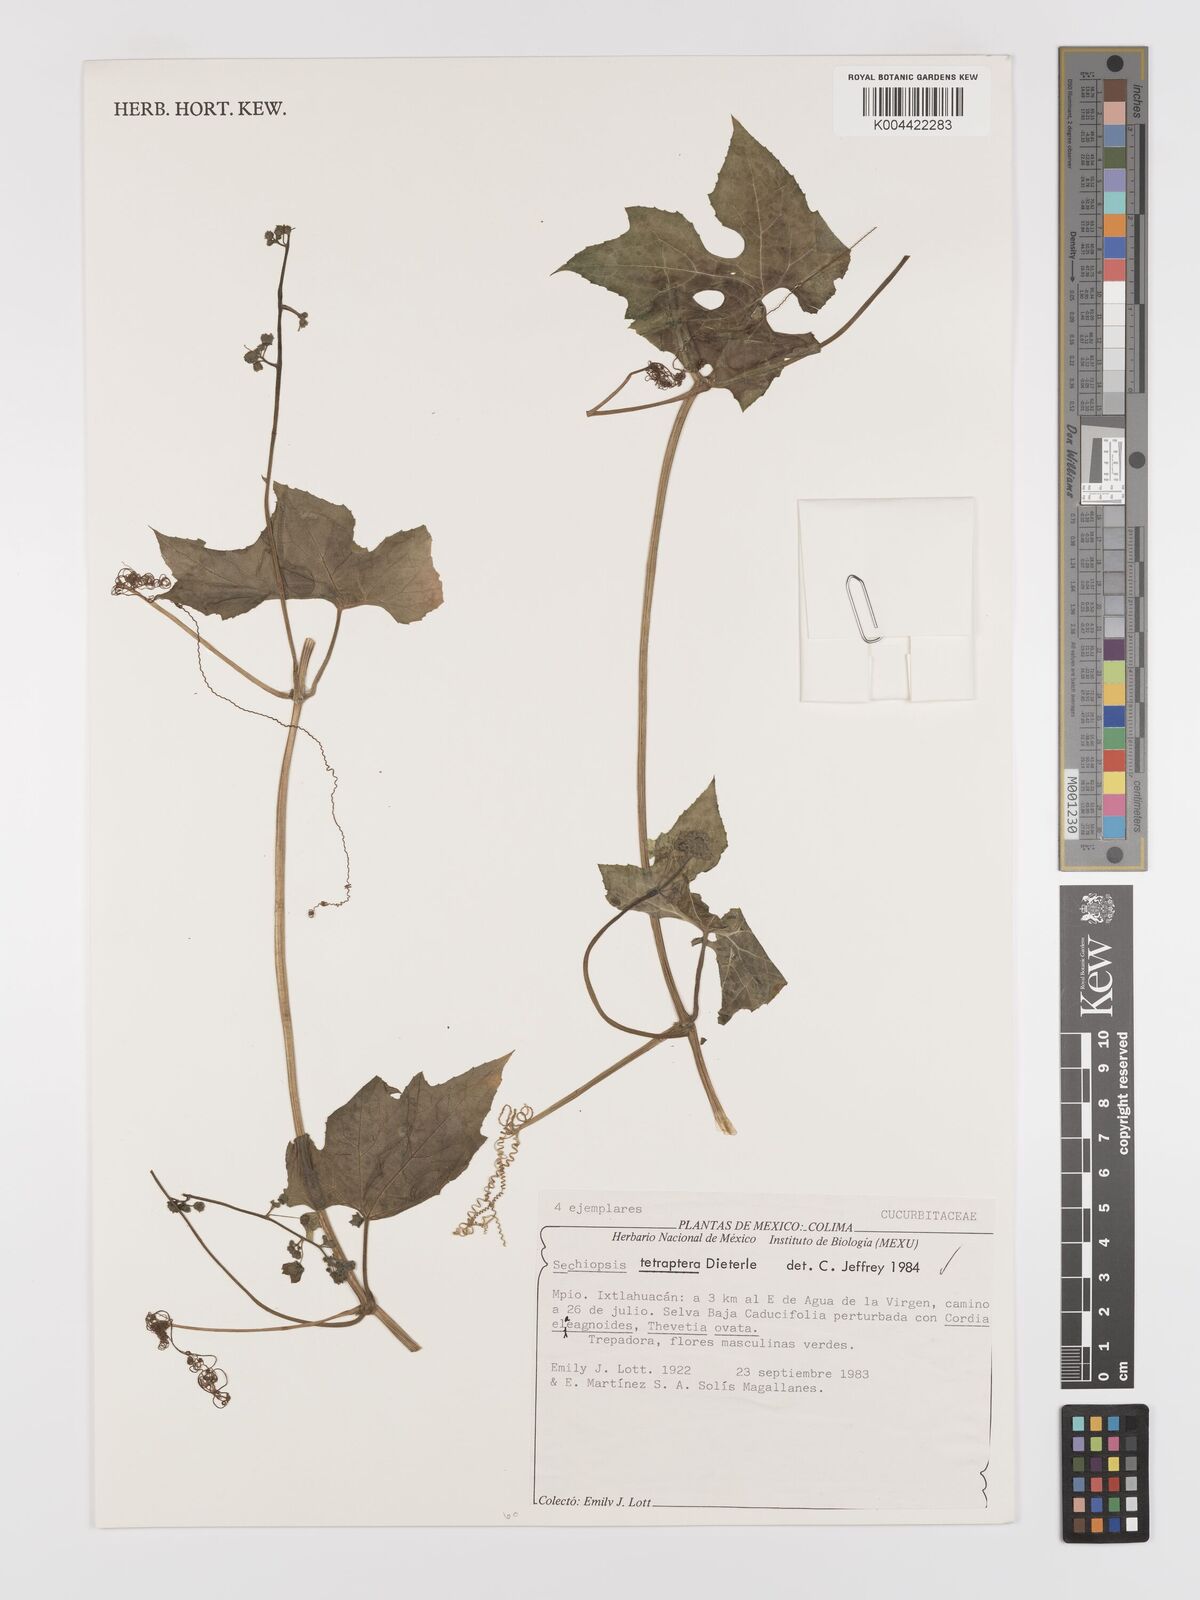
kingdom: Plantae
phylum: Tracheophyta
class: Magnoliopsida
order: Cucurbitales
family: Cucurbitaceae
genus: Sechiopsis
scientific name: Sechiopsis tetraptera
